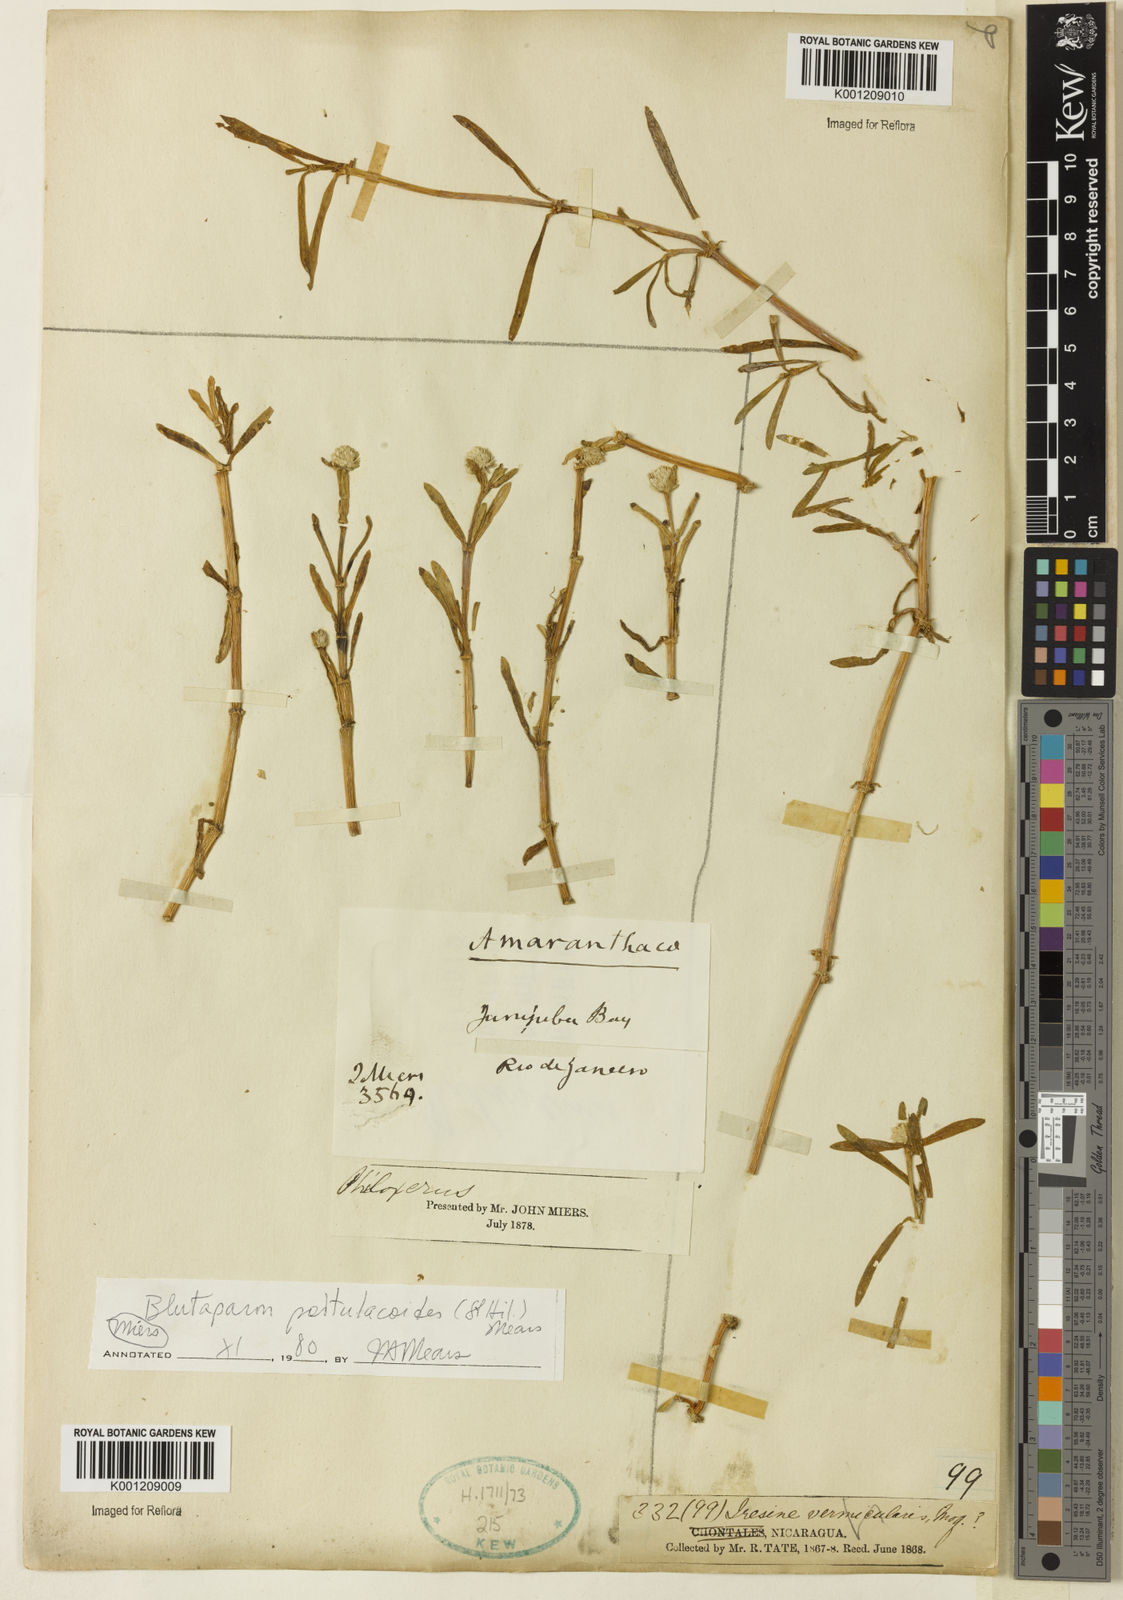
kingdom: Plantae
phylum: Tracheophyta
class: Magnoliopsida
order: Caryophyllales
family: Amaranthaceae
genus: Gomphrena
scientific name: Gomphrena portulacoides
